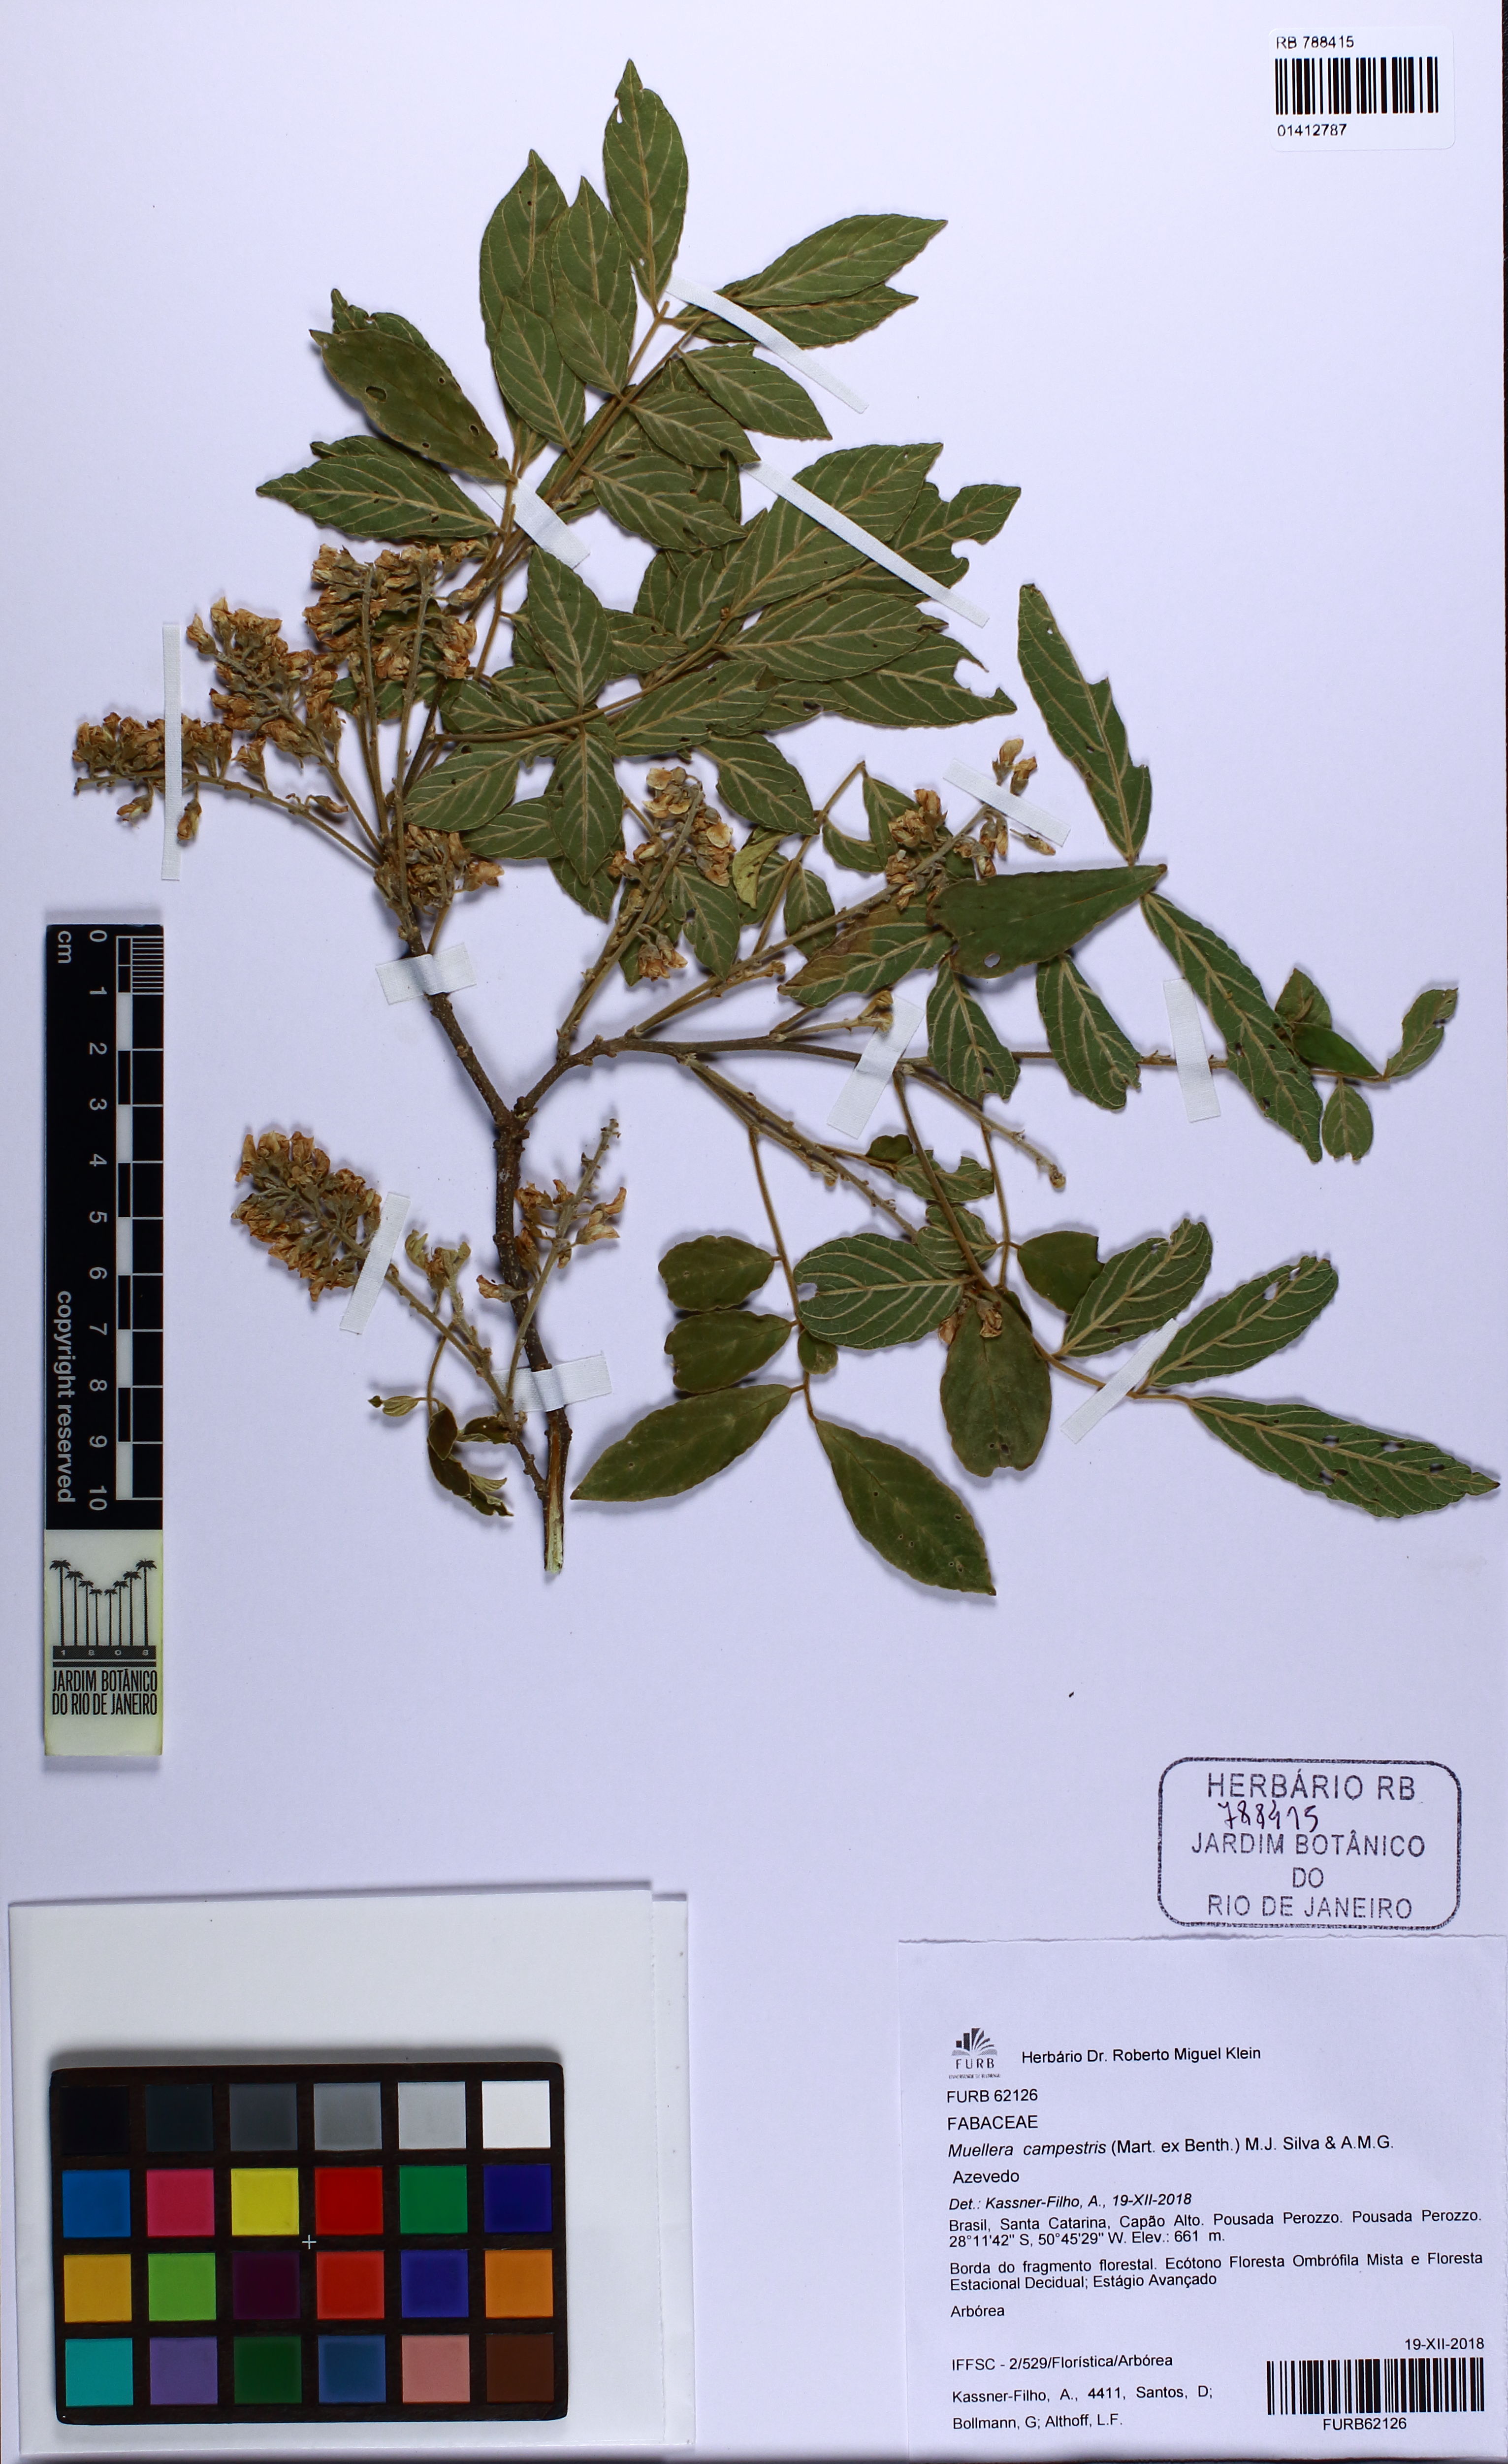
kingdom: Plantae
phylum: Tracheophyta
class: Magnoliopsida
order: Fabales
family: Fabaceae
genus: Muellera
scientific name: Muellera campestris
